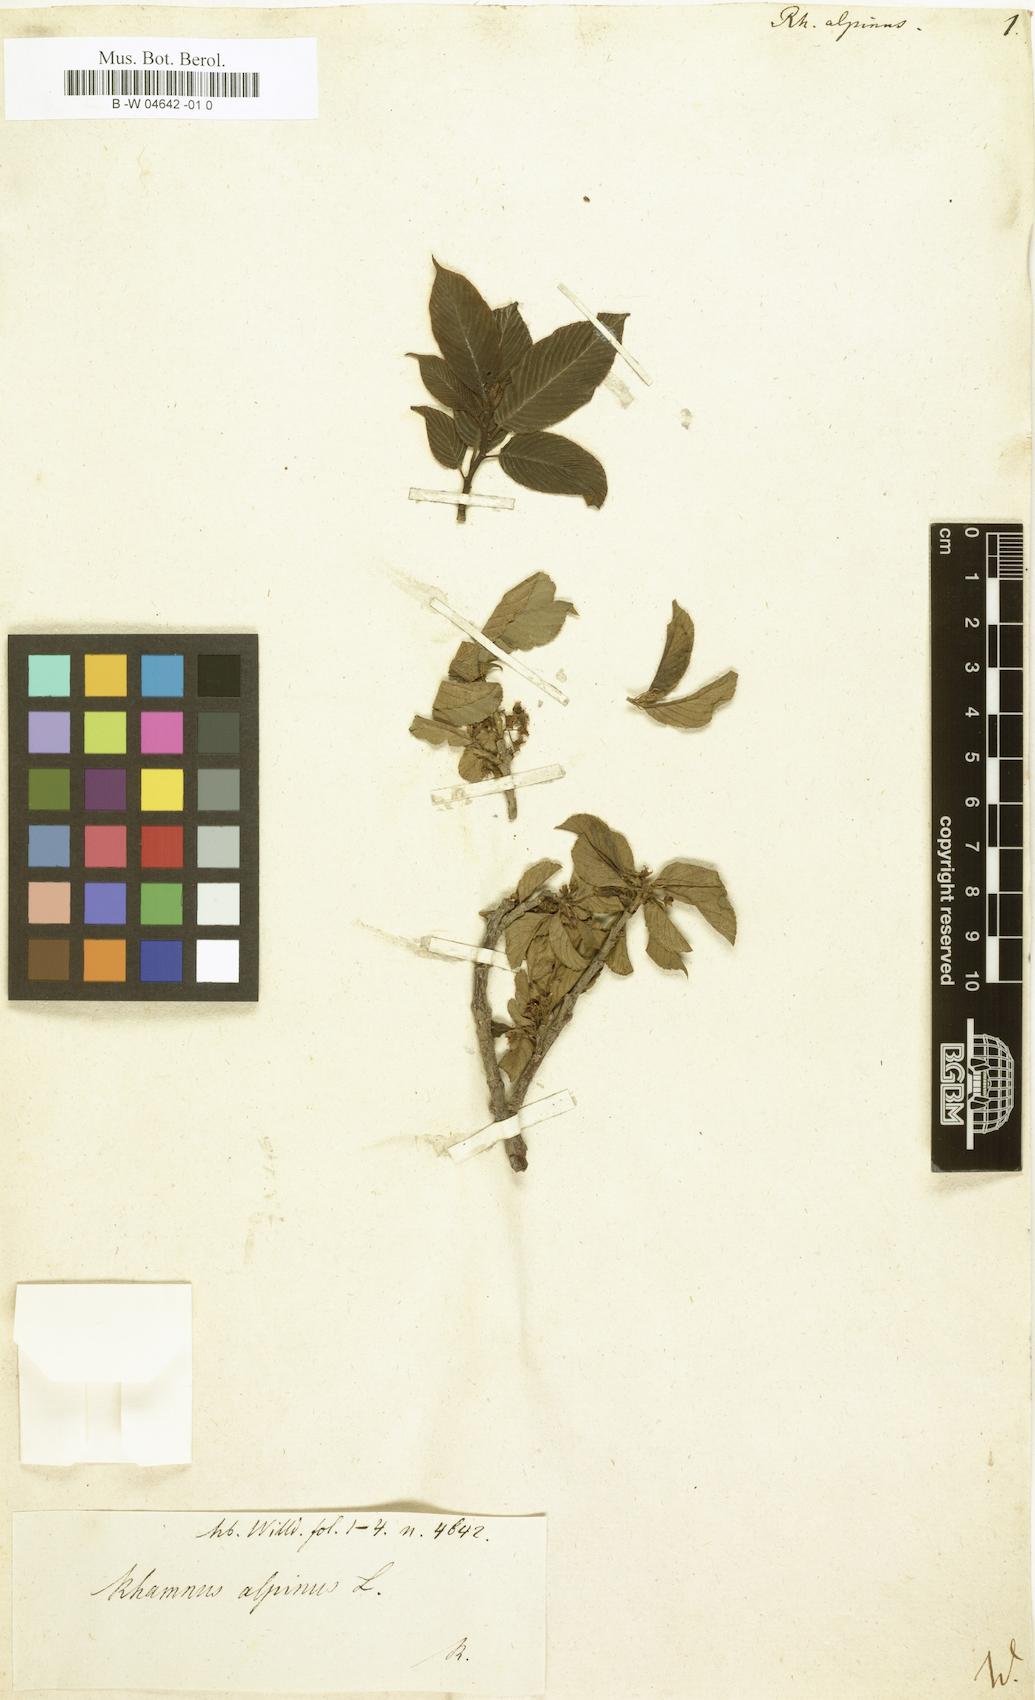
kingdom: Plantae
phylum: Tracheophyta
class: Magnoliopsida
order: Rosales
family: Rhamnaceae
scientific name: Rhamnaceae
